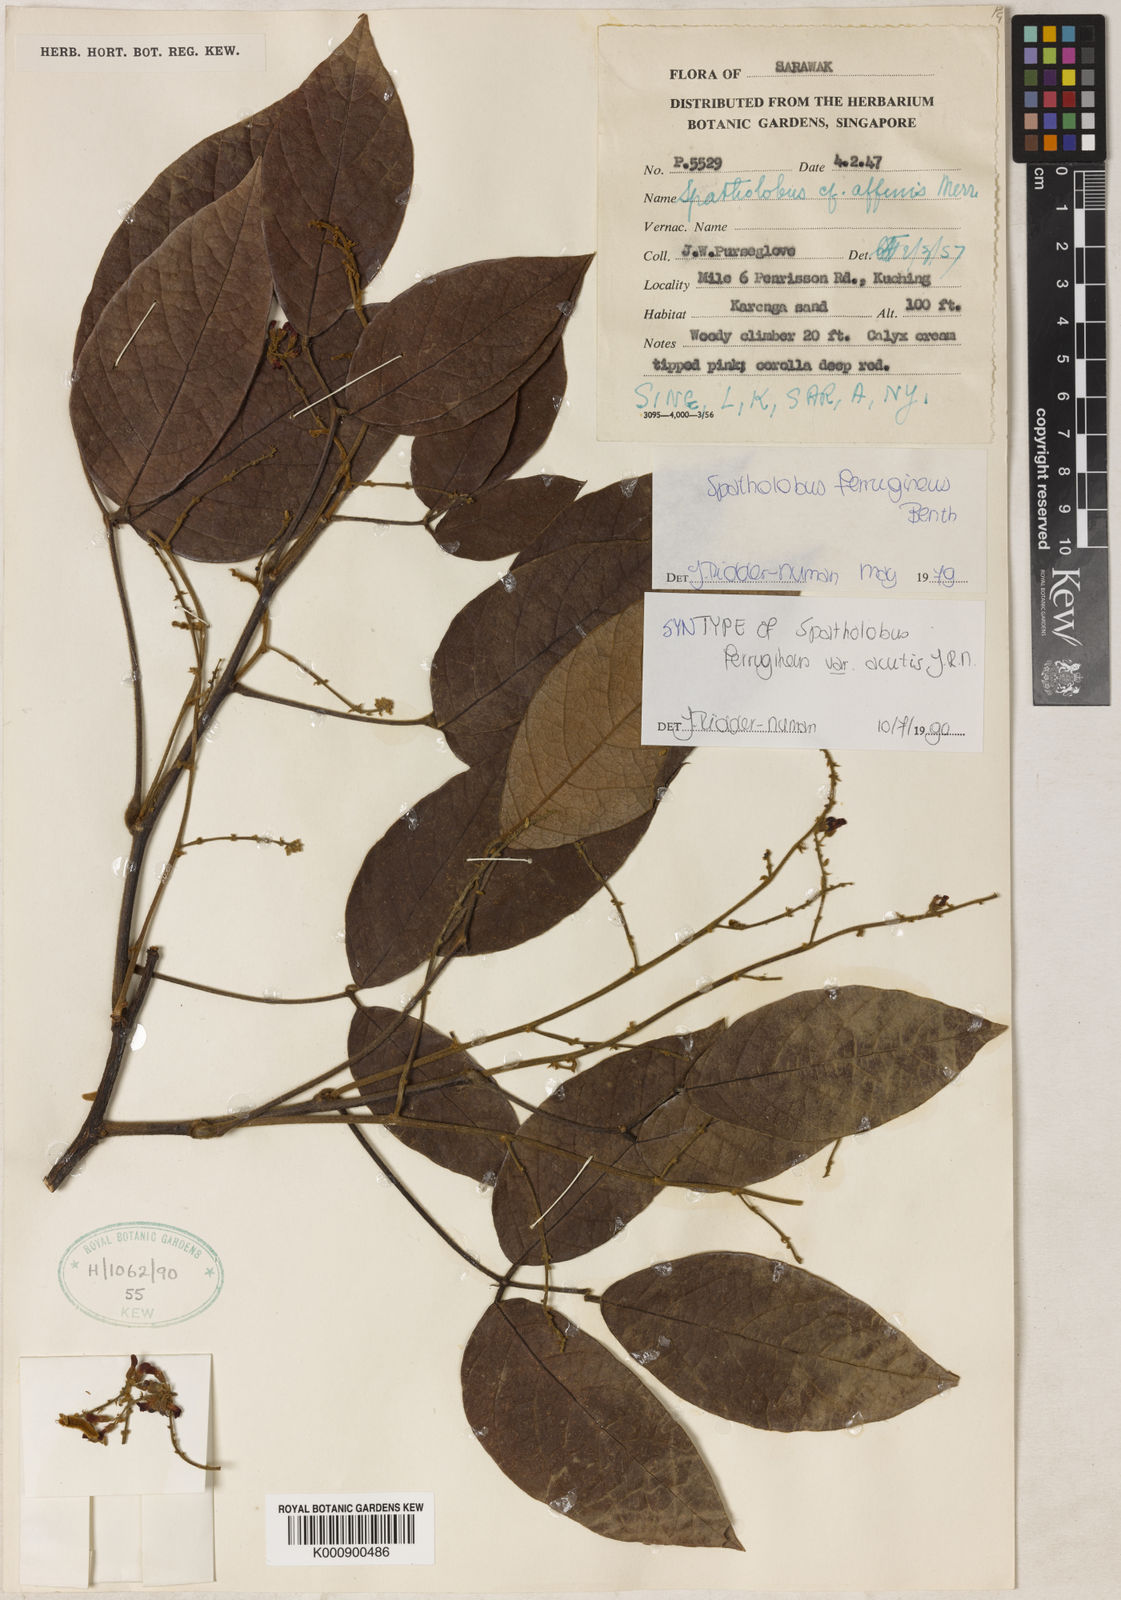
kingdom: Plantae
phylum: Tracheophyta
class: Magnoliopsida
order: Fabales
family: Fabaceae
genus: Spatholobus
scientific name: Spatholobus ferrugineus
